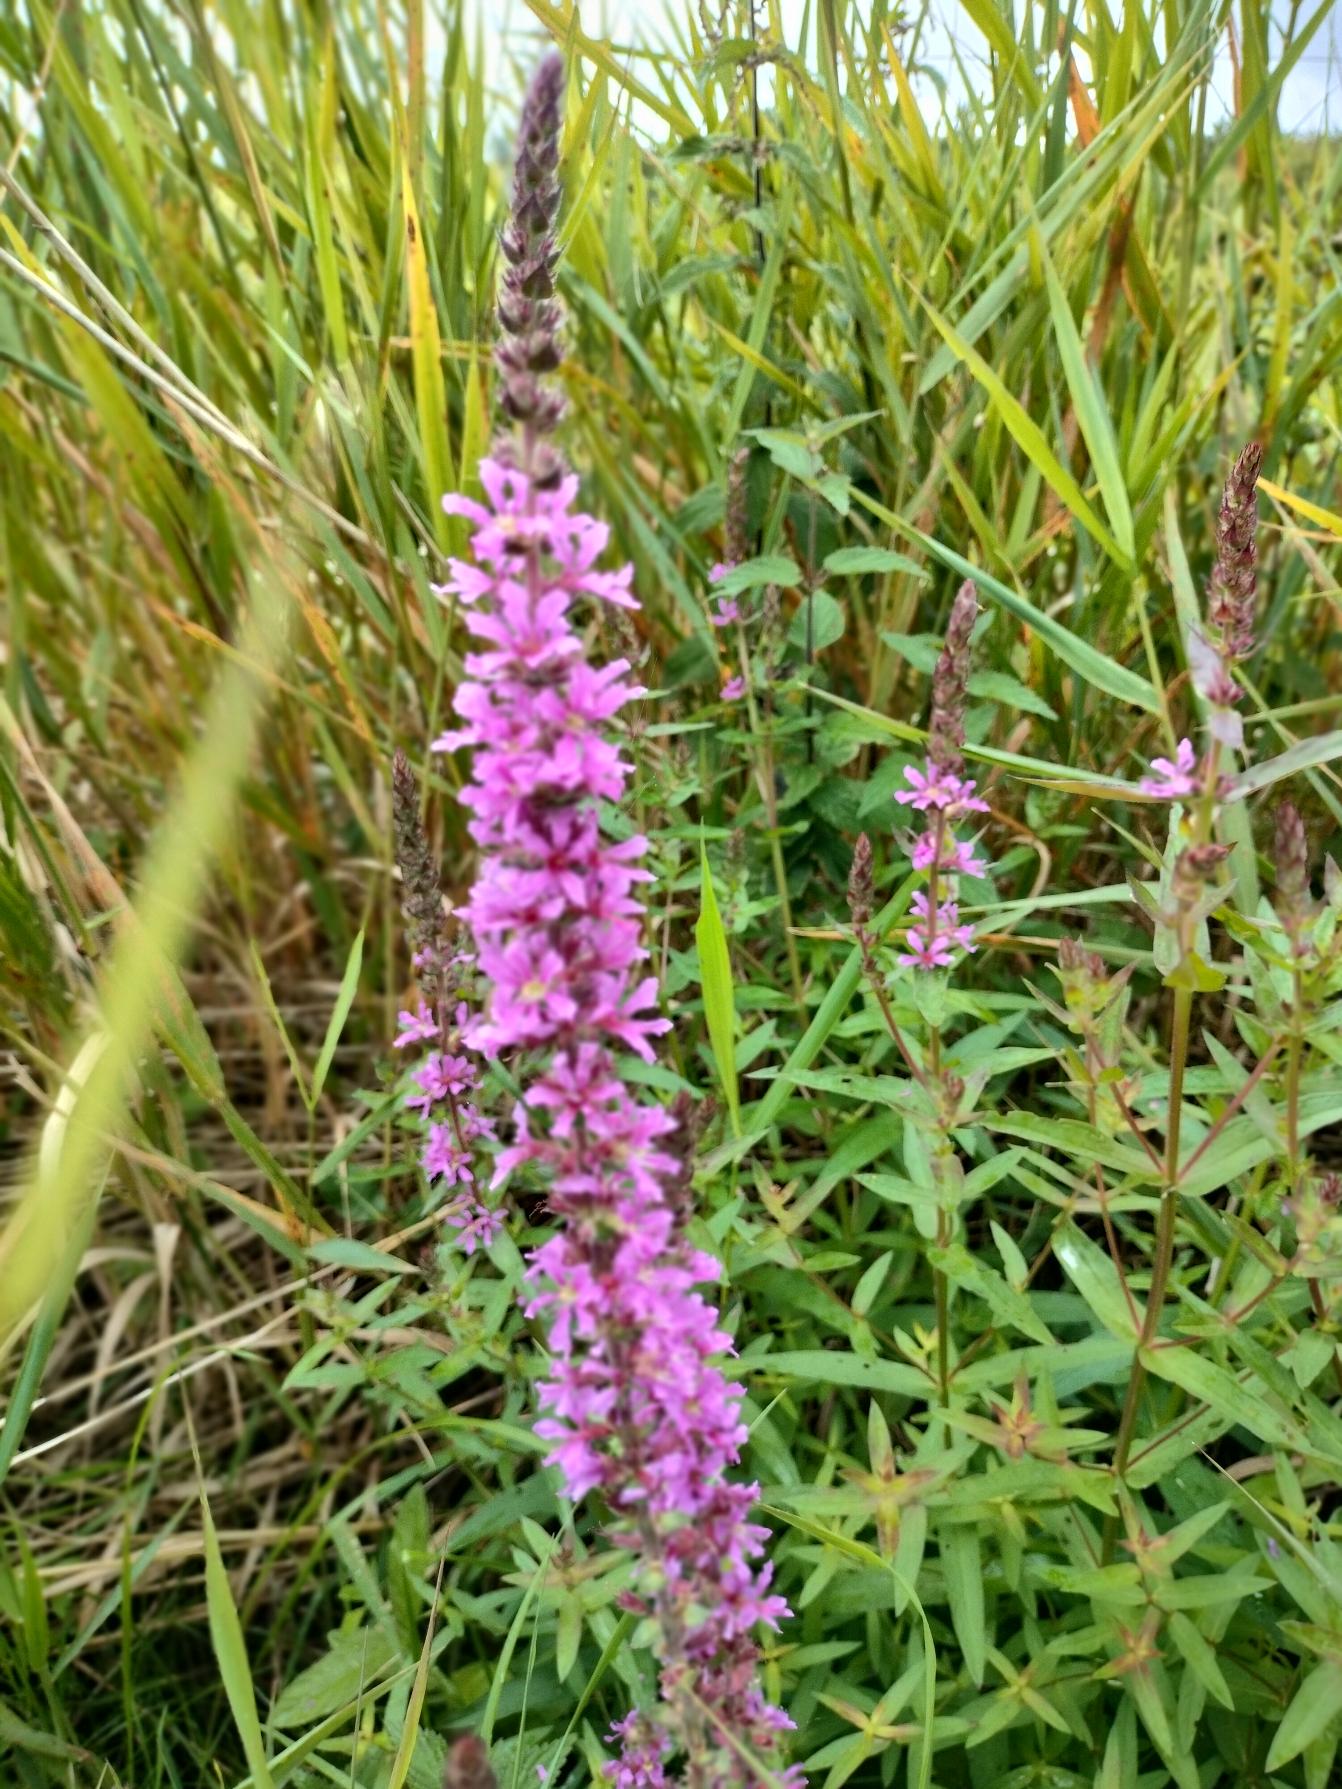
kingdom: Plantae
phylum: Tracheophyta
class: Magnoliopsida
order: Myrtales
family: Lythraceae
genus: Lythrum
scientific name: Lythrum salicaria
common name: Kattehale
